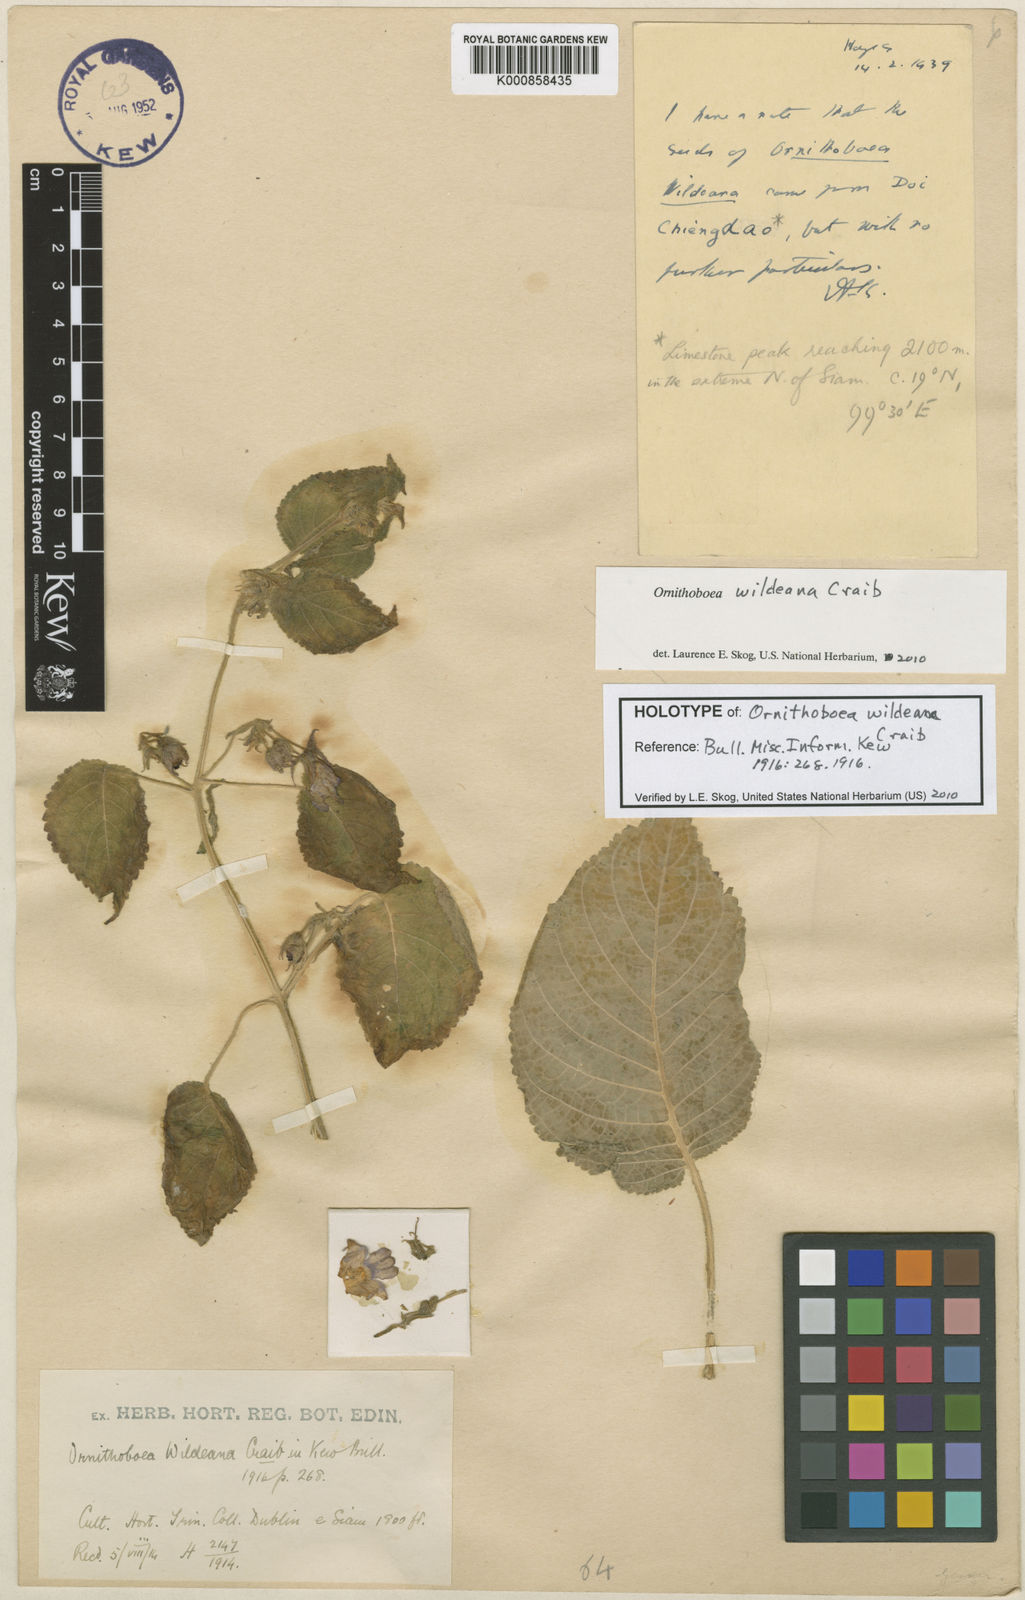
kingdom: Plantae
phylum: Tracheophyta
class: Magnoliopsida
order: Lamiales
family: Gesneriaceae
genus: Ornithoboea
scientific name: Ornithoboea wildeana
